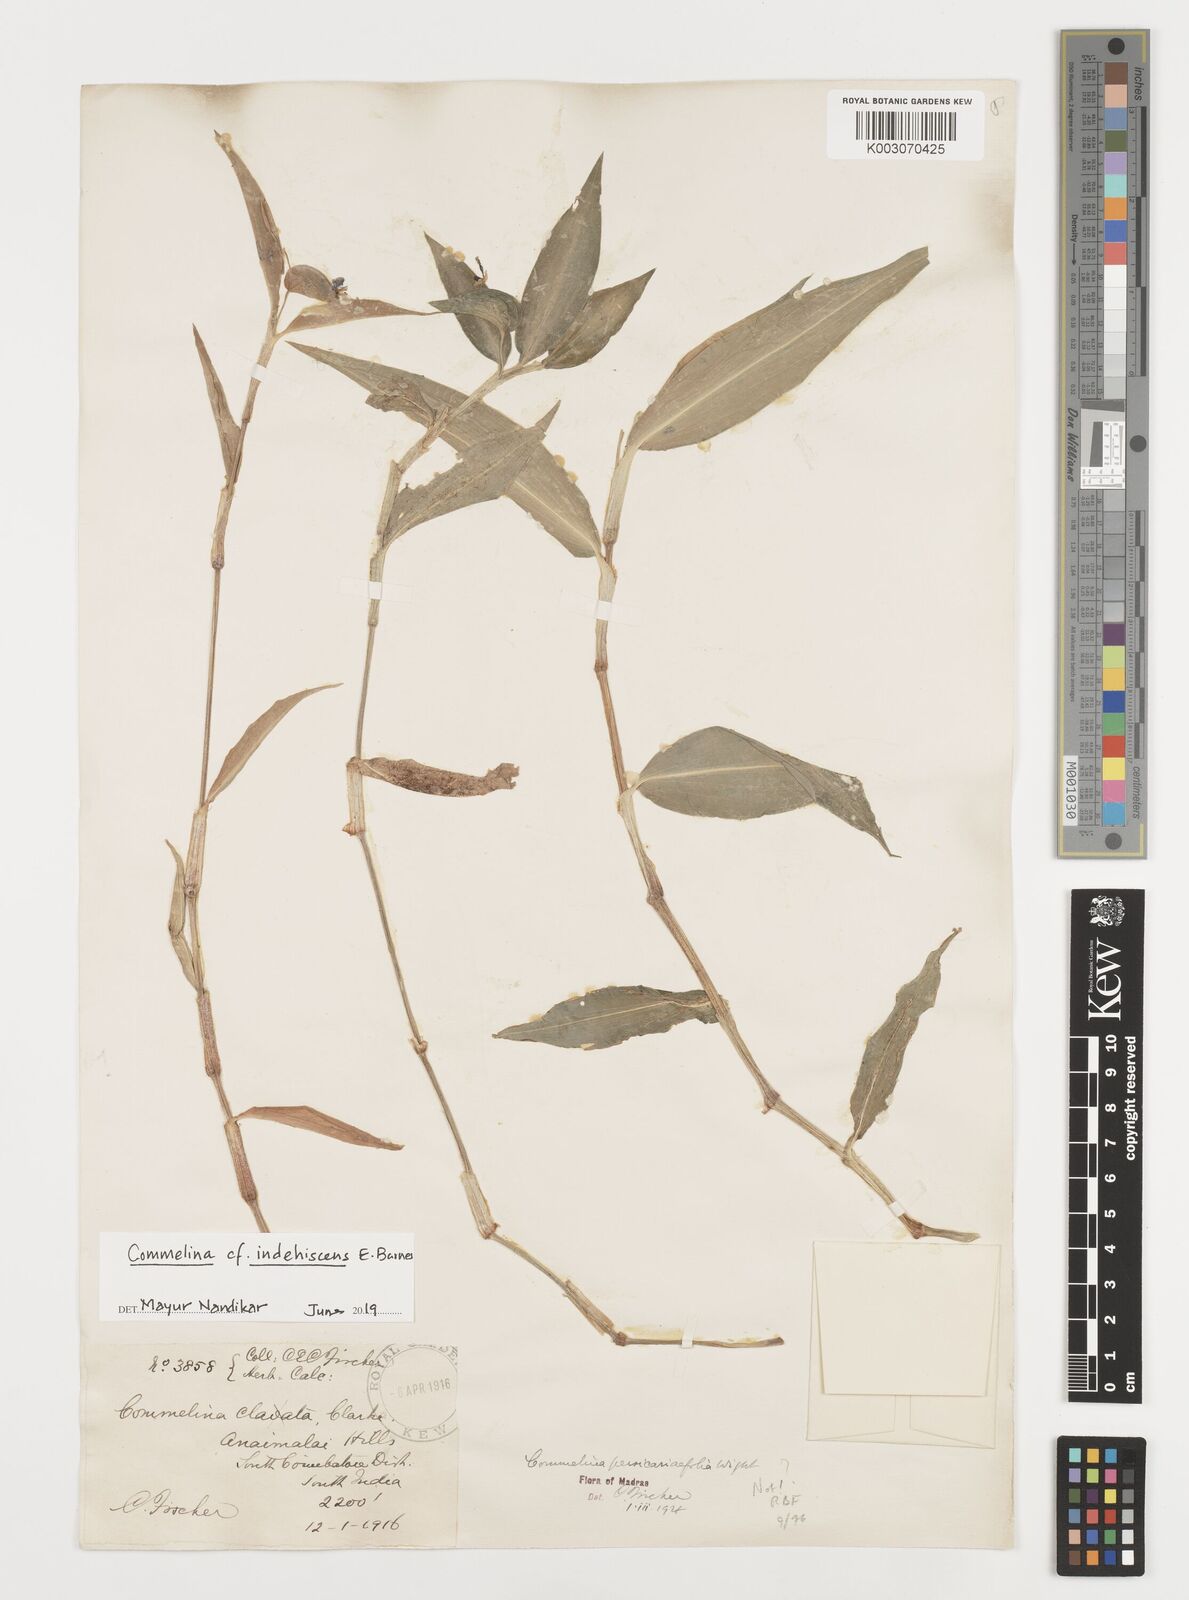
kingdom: Plantae
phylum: Tracheophyta
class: Liliopsida
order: Commelinales
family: Commelinaceae
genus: Commelina
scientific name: Commelina indehiscens
